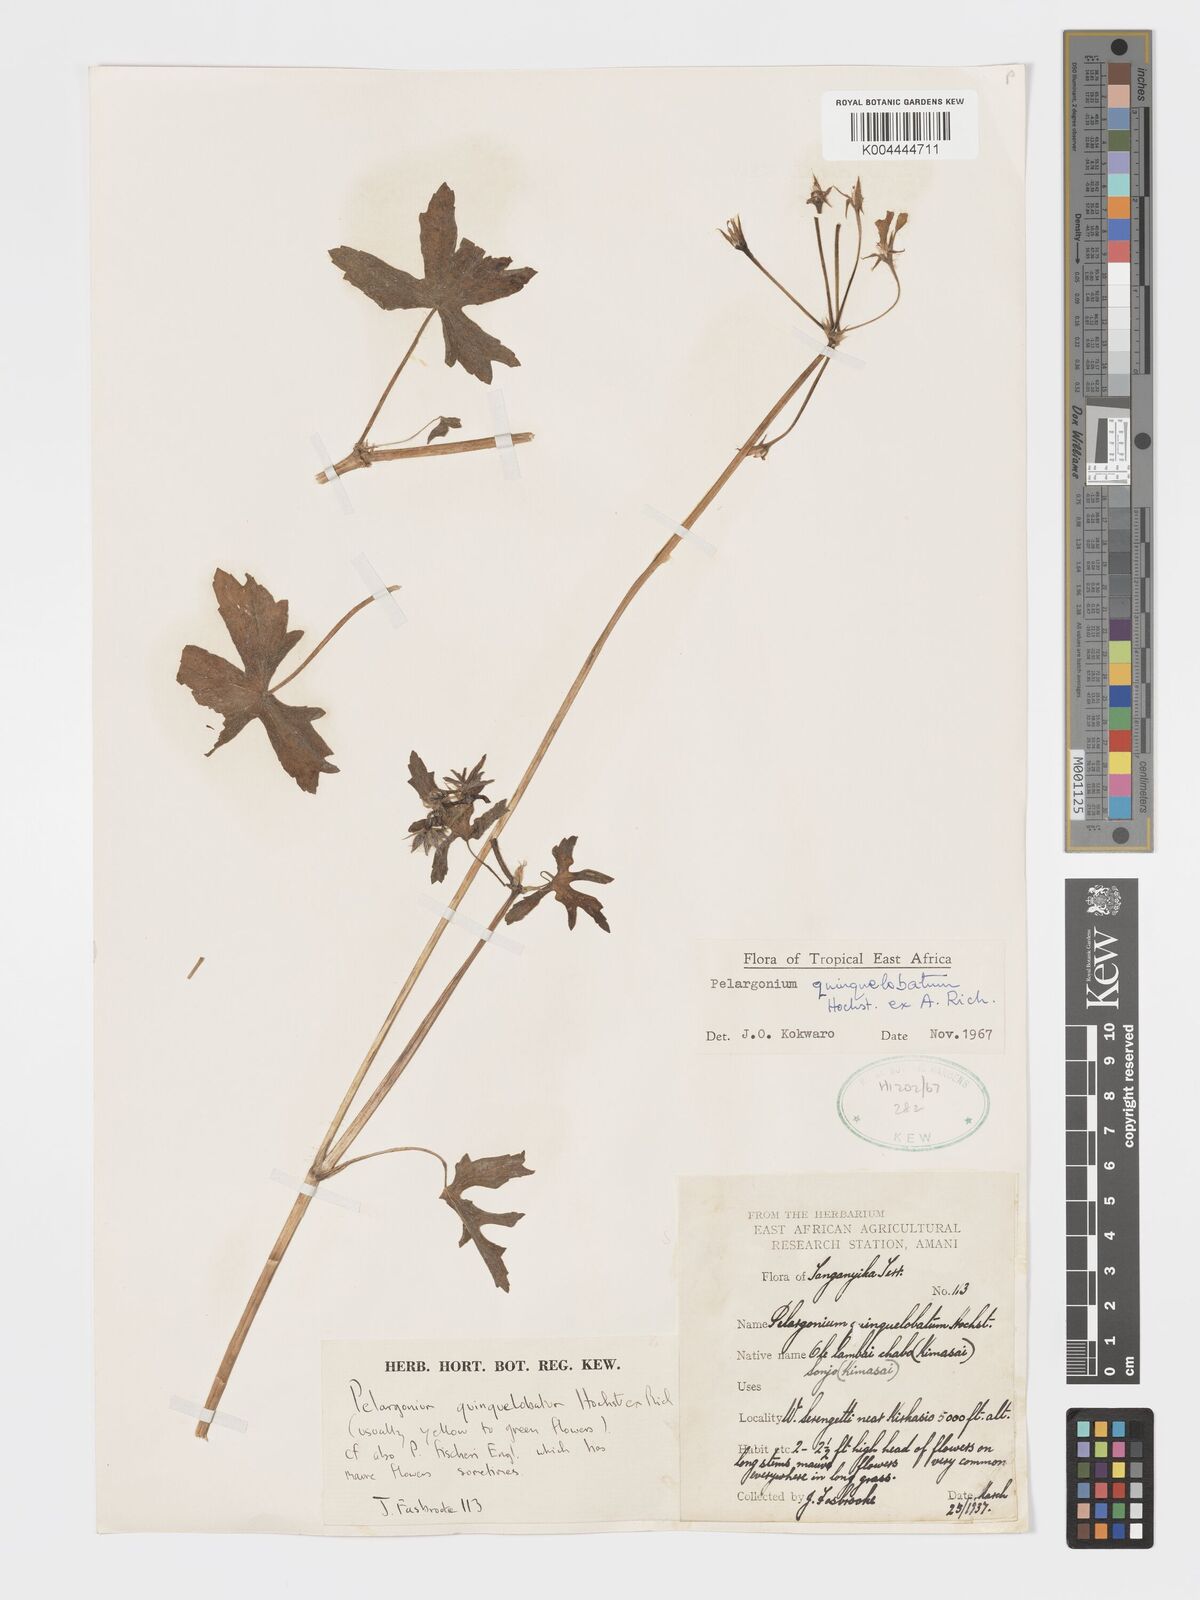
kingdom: Plantae
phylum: Tracheophyta
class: Magnoliopsida
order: Geraniales
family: Geraniaceae
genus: Pelargonium
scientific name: Pelargonium quinquelobatum
